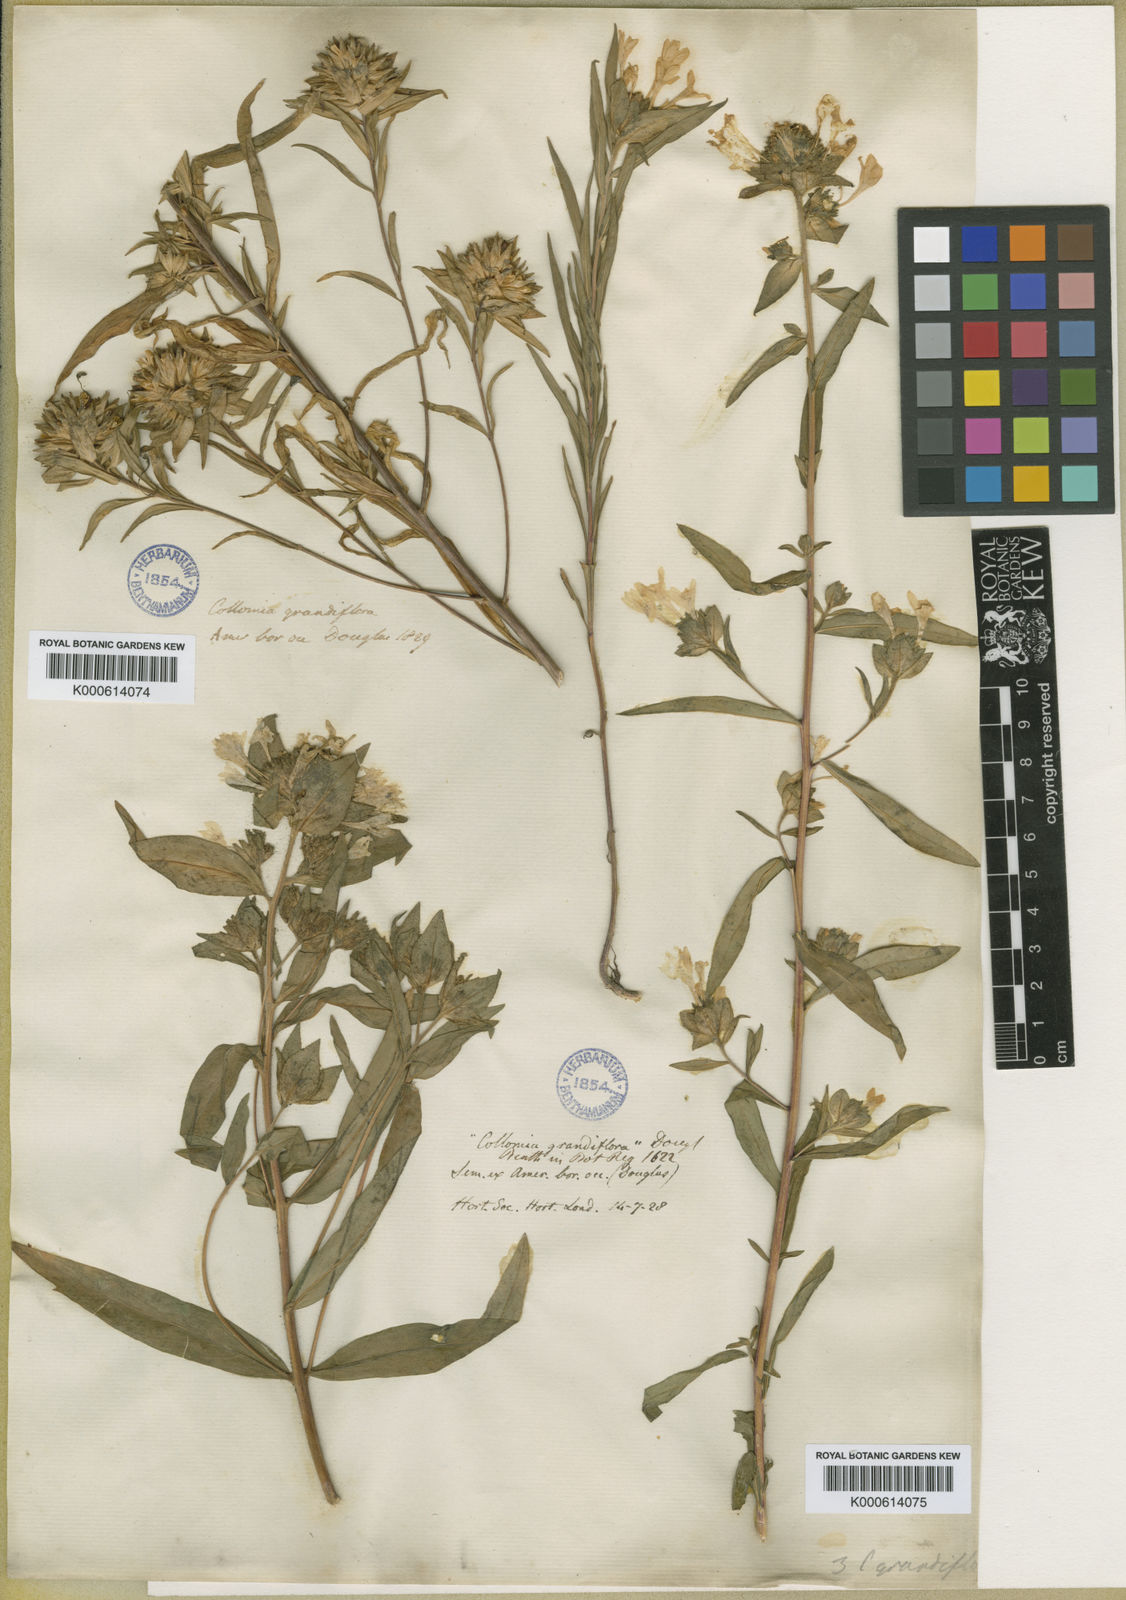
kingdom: Plantae
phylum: Tracheophyta
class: Magnoliopsida
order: Ericales
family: Polemoniaceae
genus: Collomia
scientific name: Collomia grandiflora
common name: California strawflower
